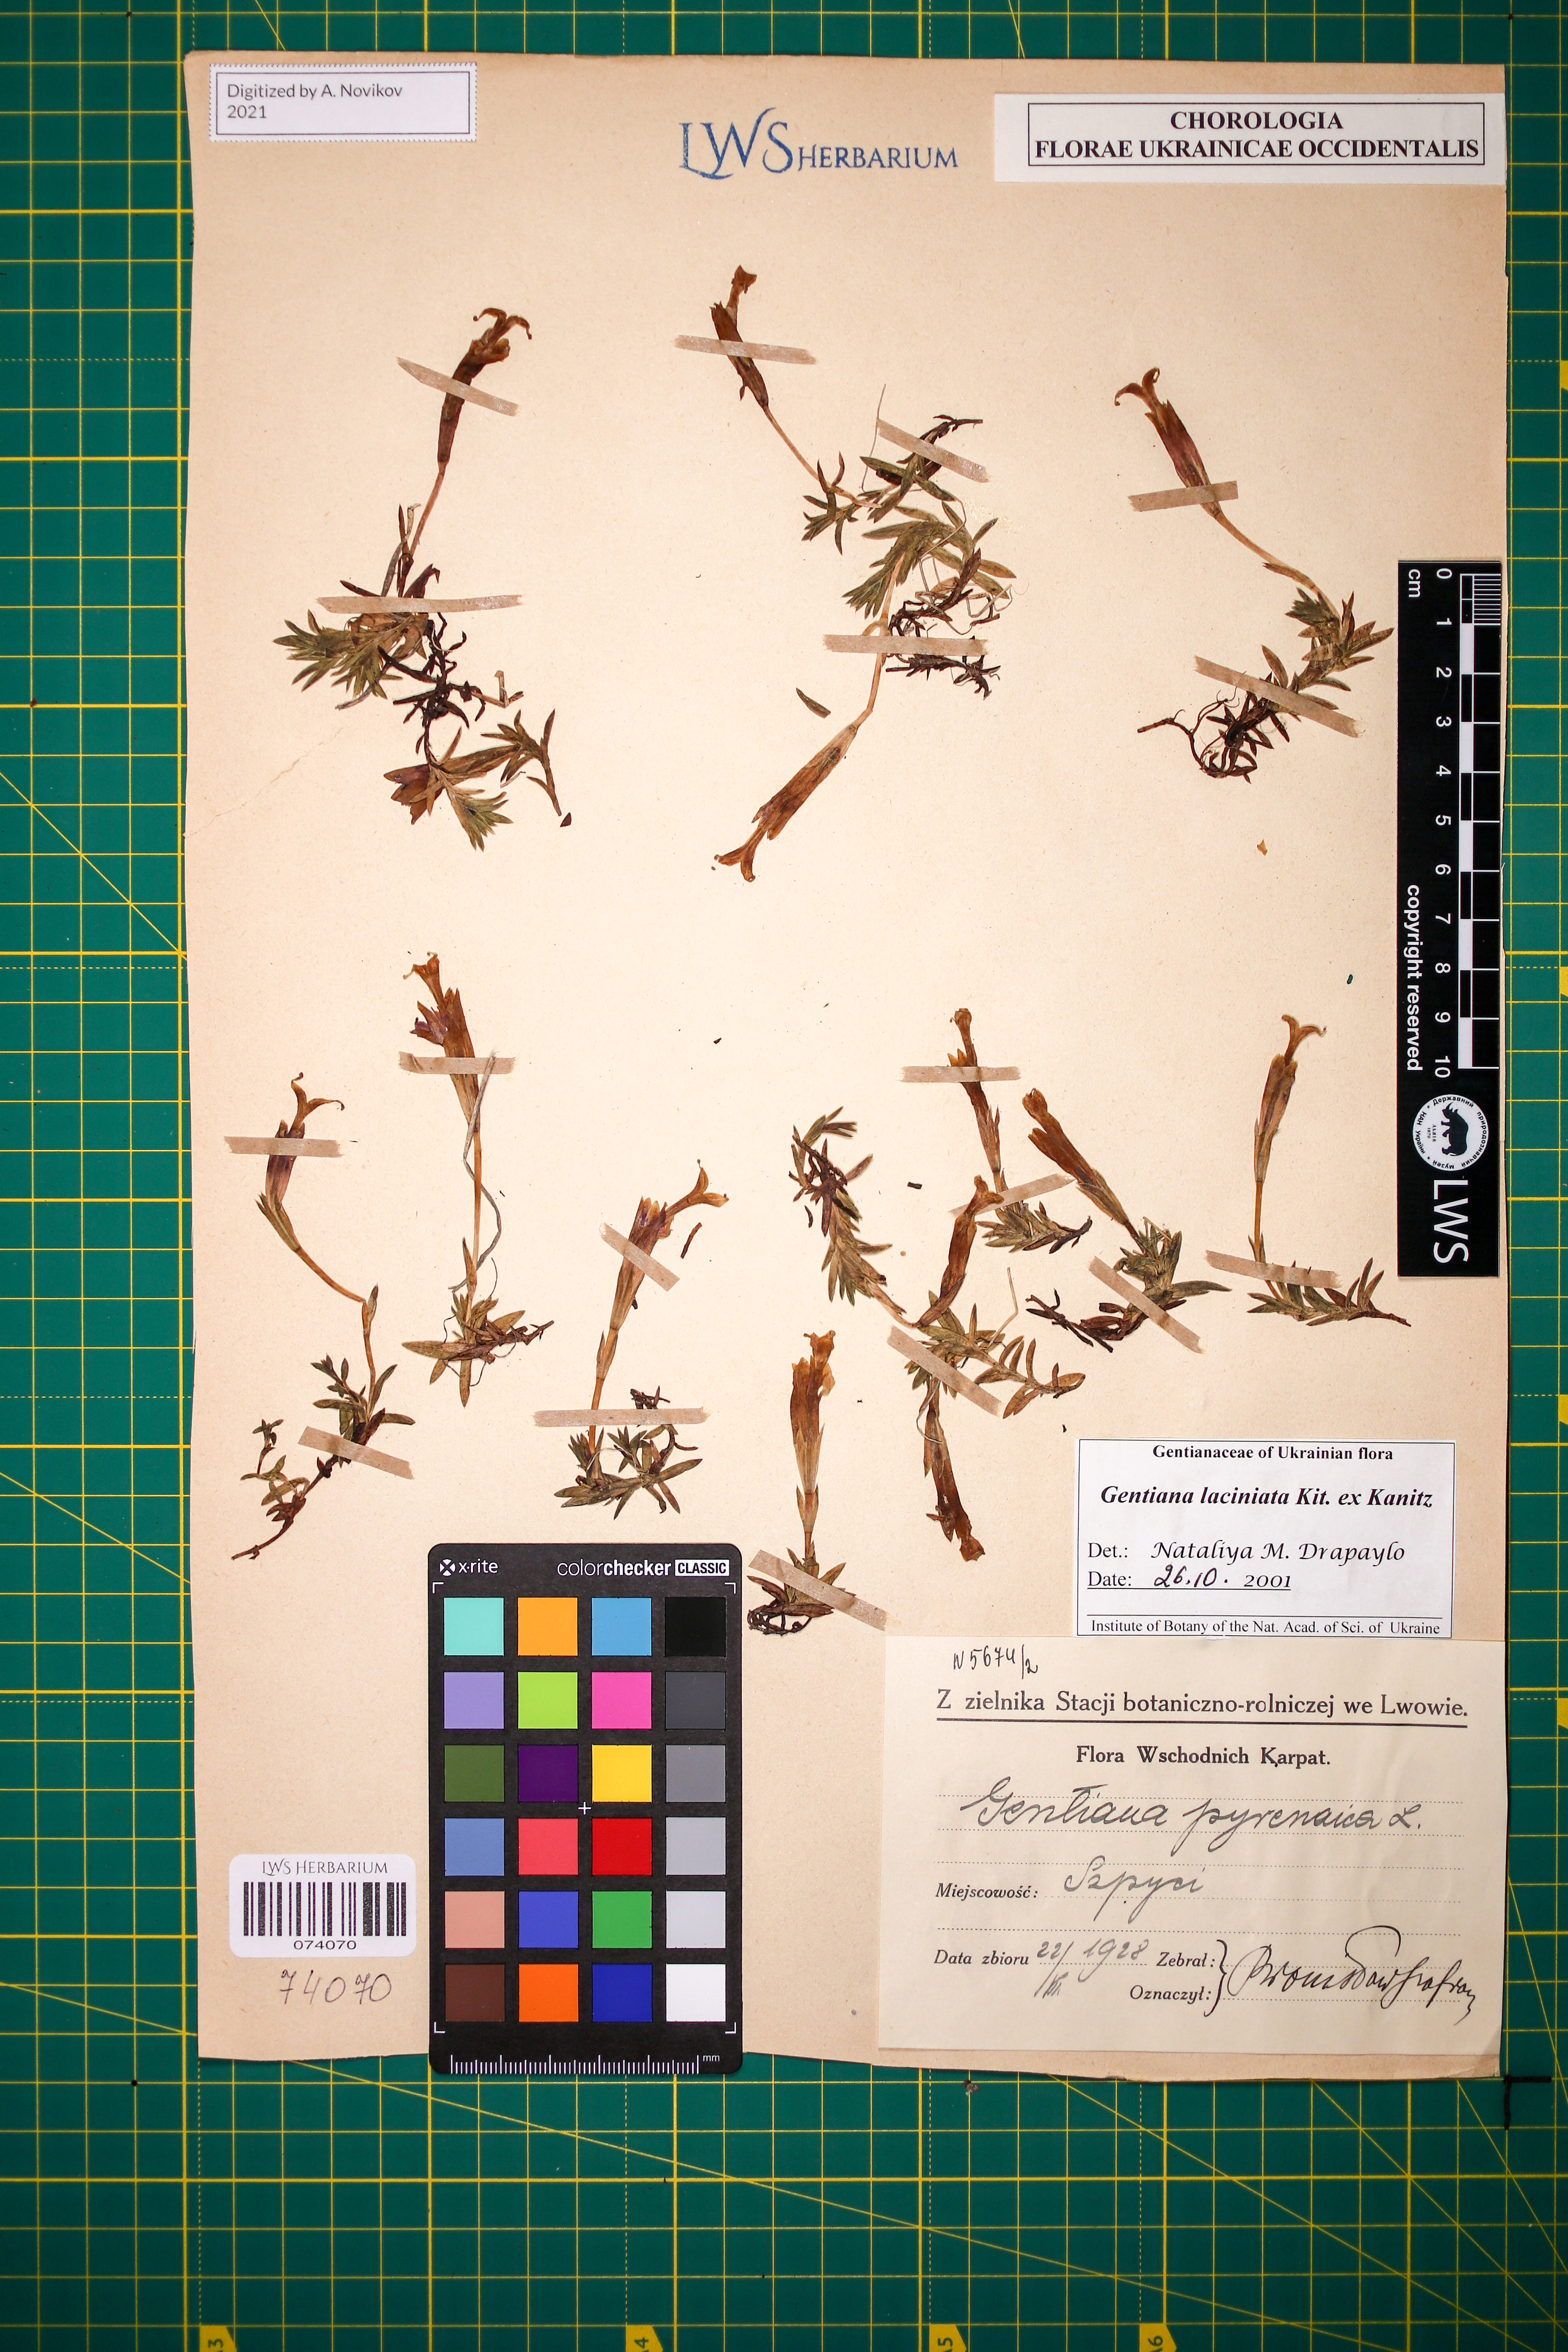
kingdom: Plantae
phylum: Tracheophyta
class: Magnoliopsida
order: Gentianales
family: Gentianaceae
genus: Gentiana
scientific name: Gentiana laciniata
